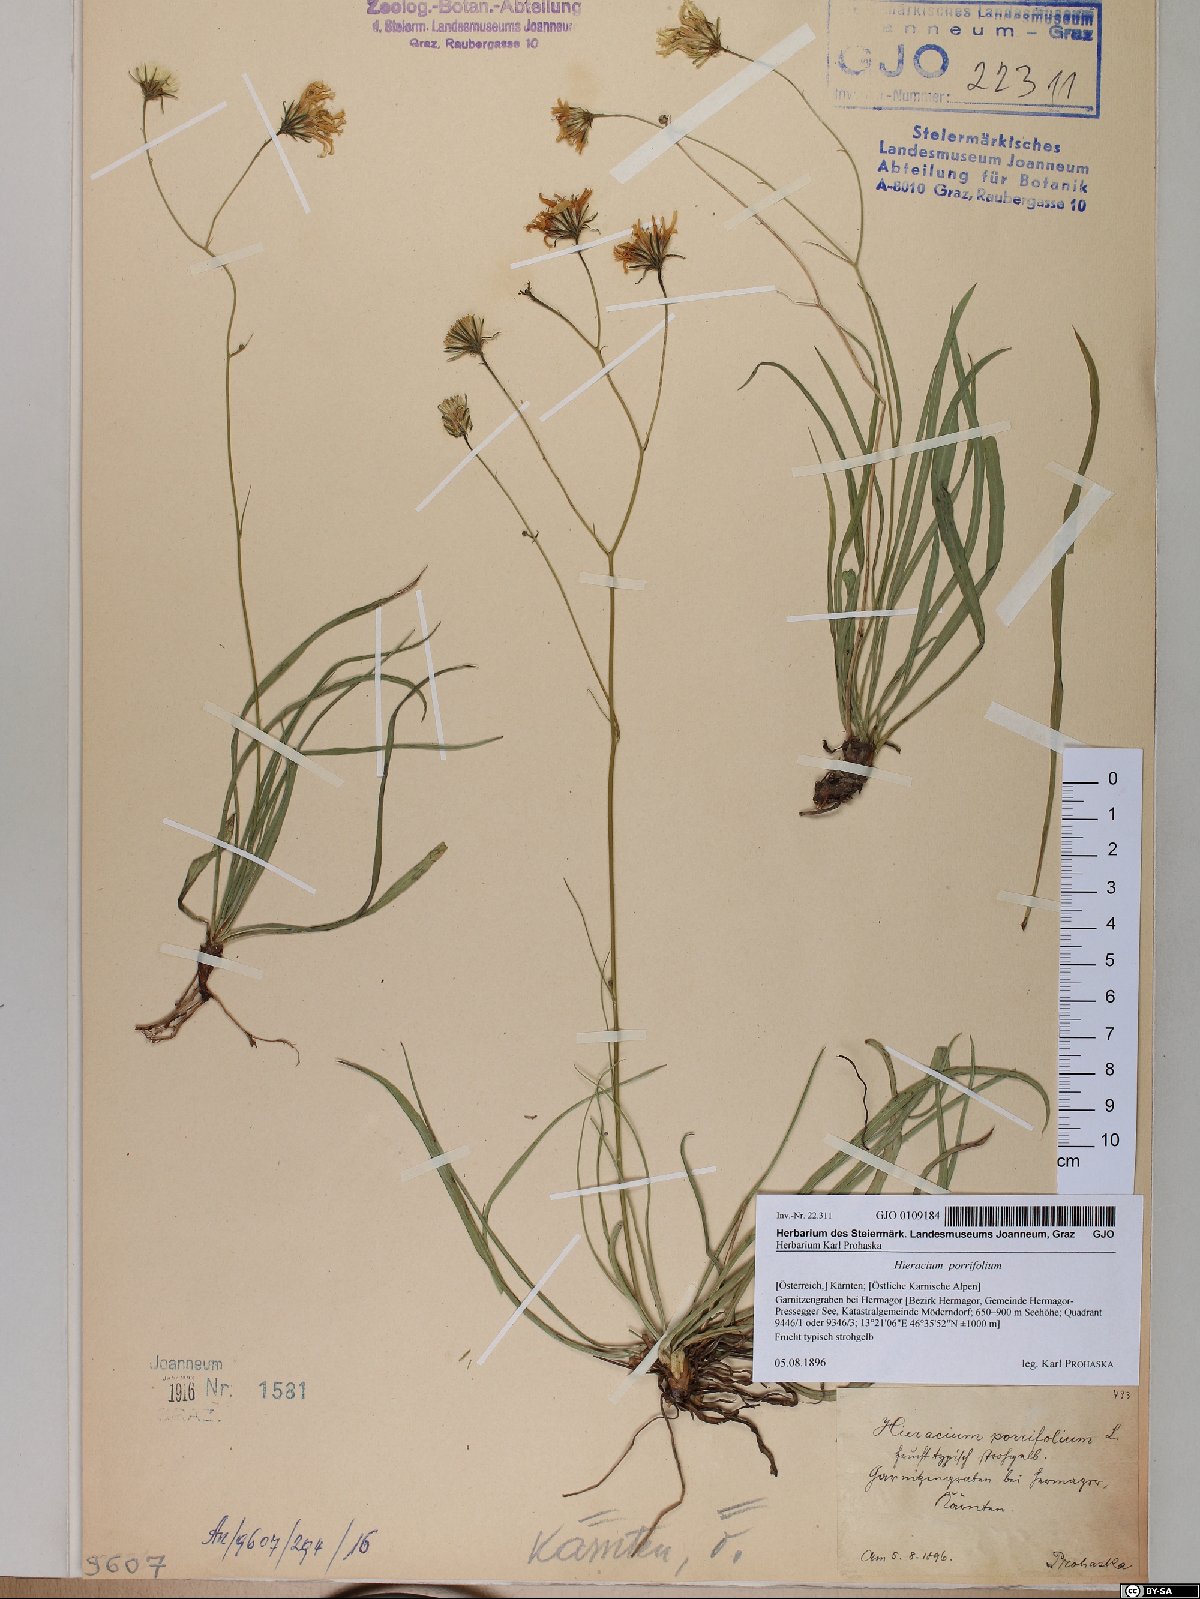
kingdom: Plantae
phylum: Tracheophyta
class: Magnoliopsida
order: Asterales
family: Asteraceae
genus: Hieracium
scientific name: Hieracium porrifolium
